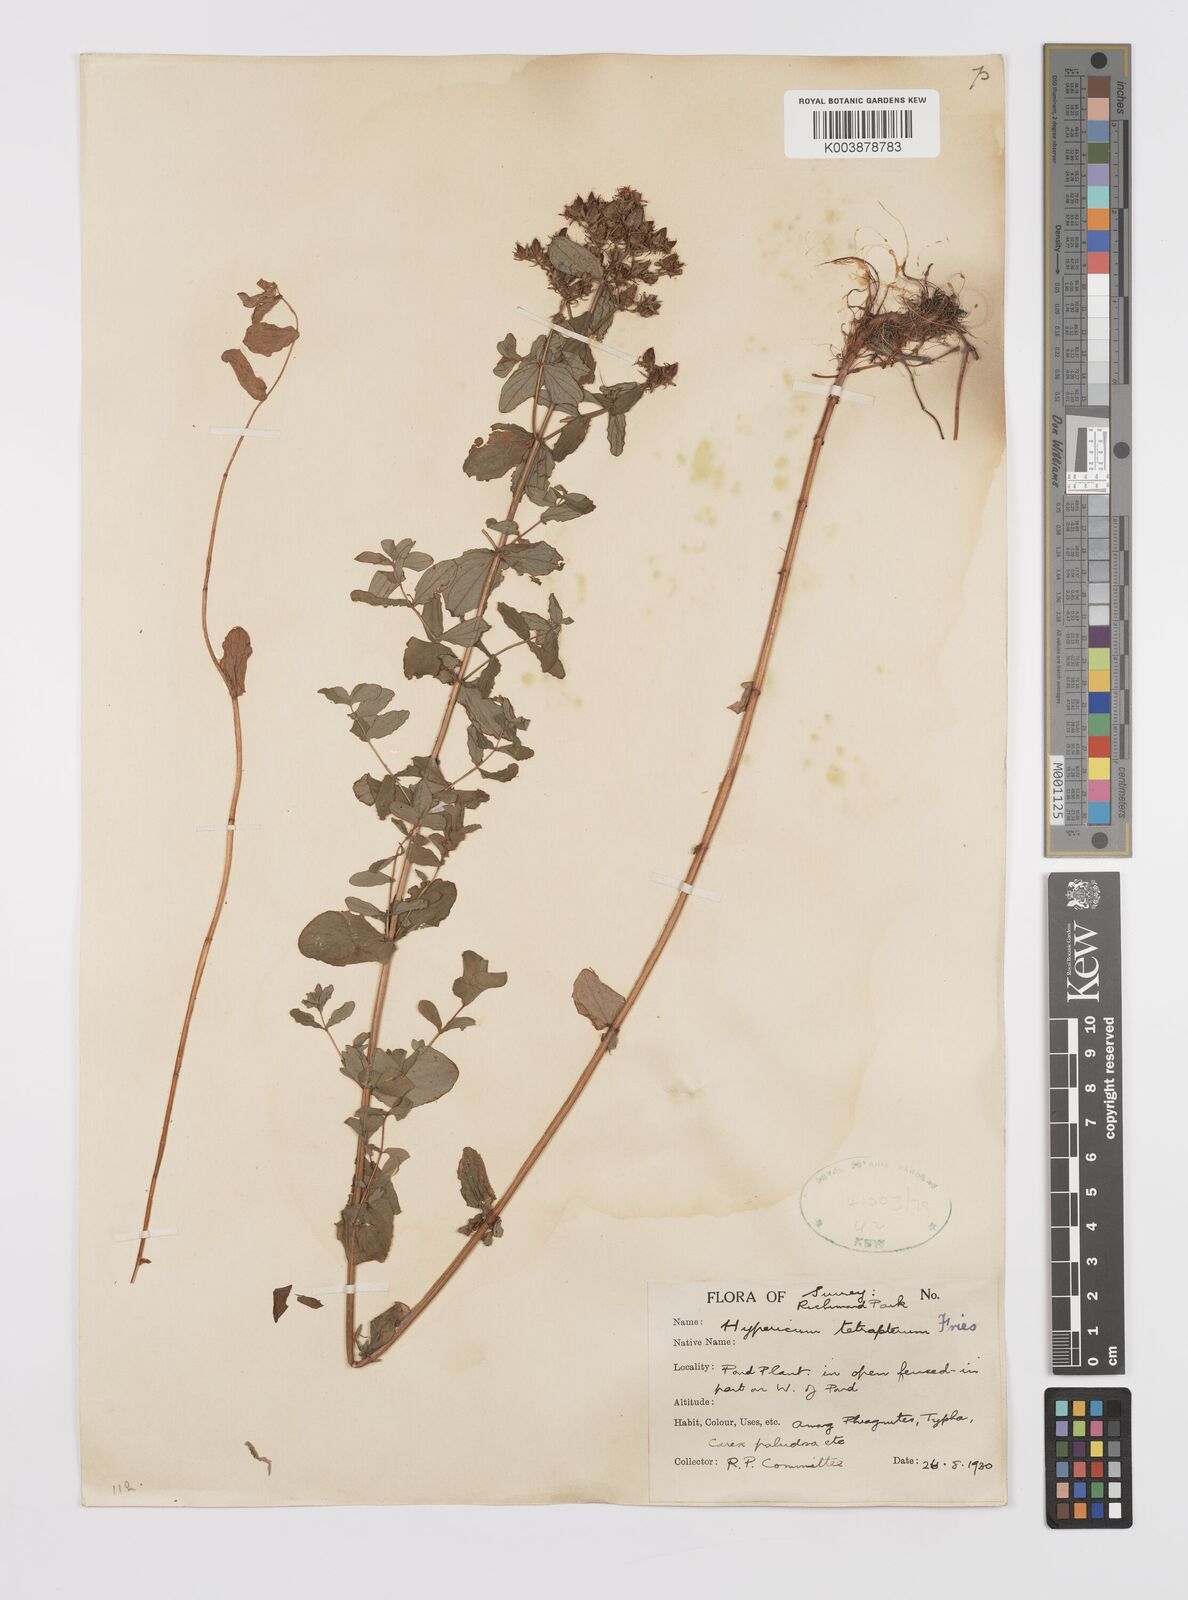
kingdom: Plantae
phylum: Tracheophyta
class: Magnoliopsida
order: Malpighiales
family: Hypericaceae
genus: Hypericum
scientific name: Hypericum tetrapterum
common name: Square-stalked st. john's-wort
